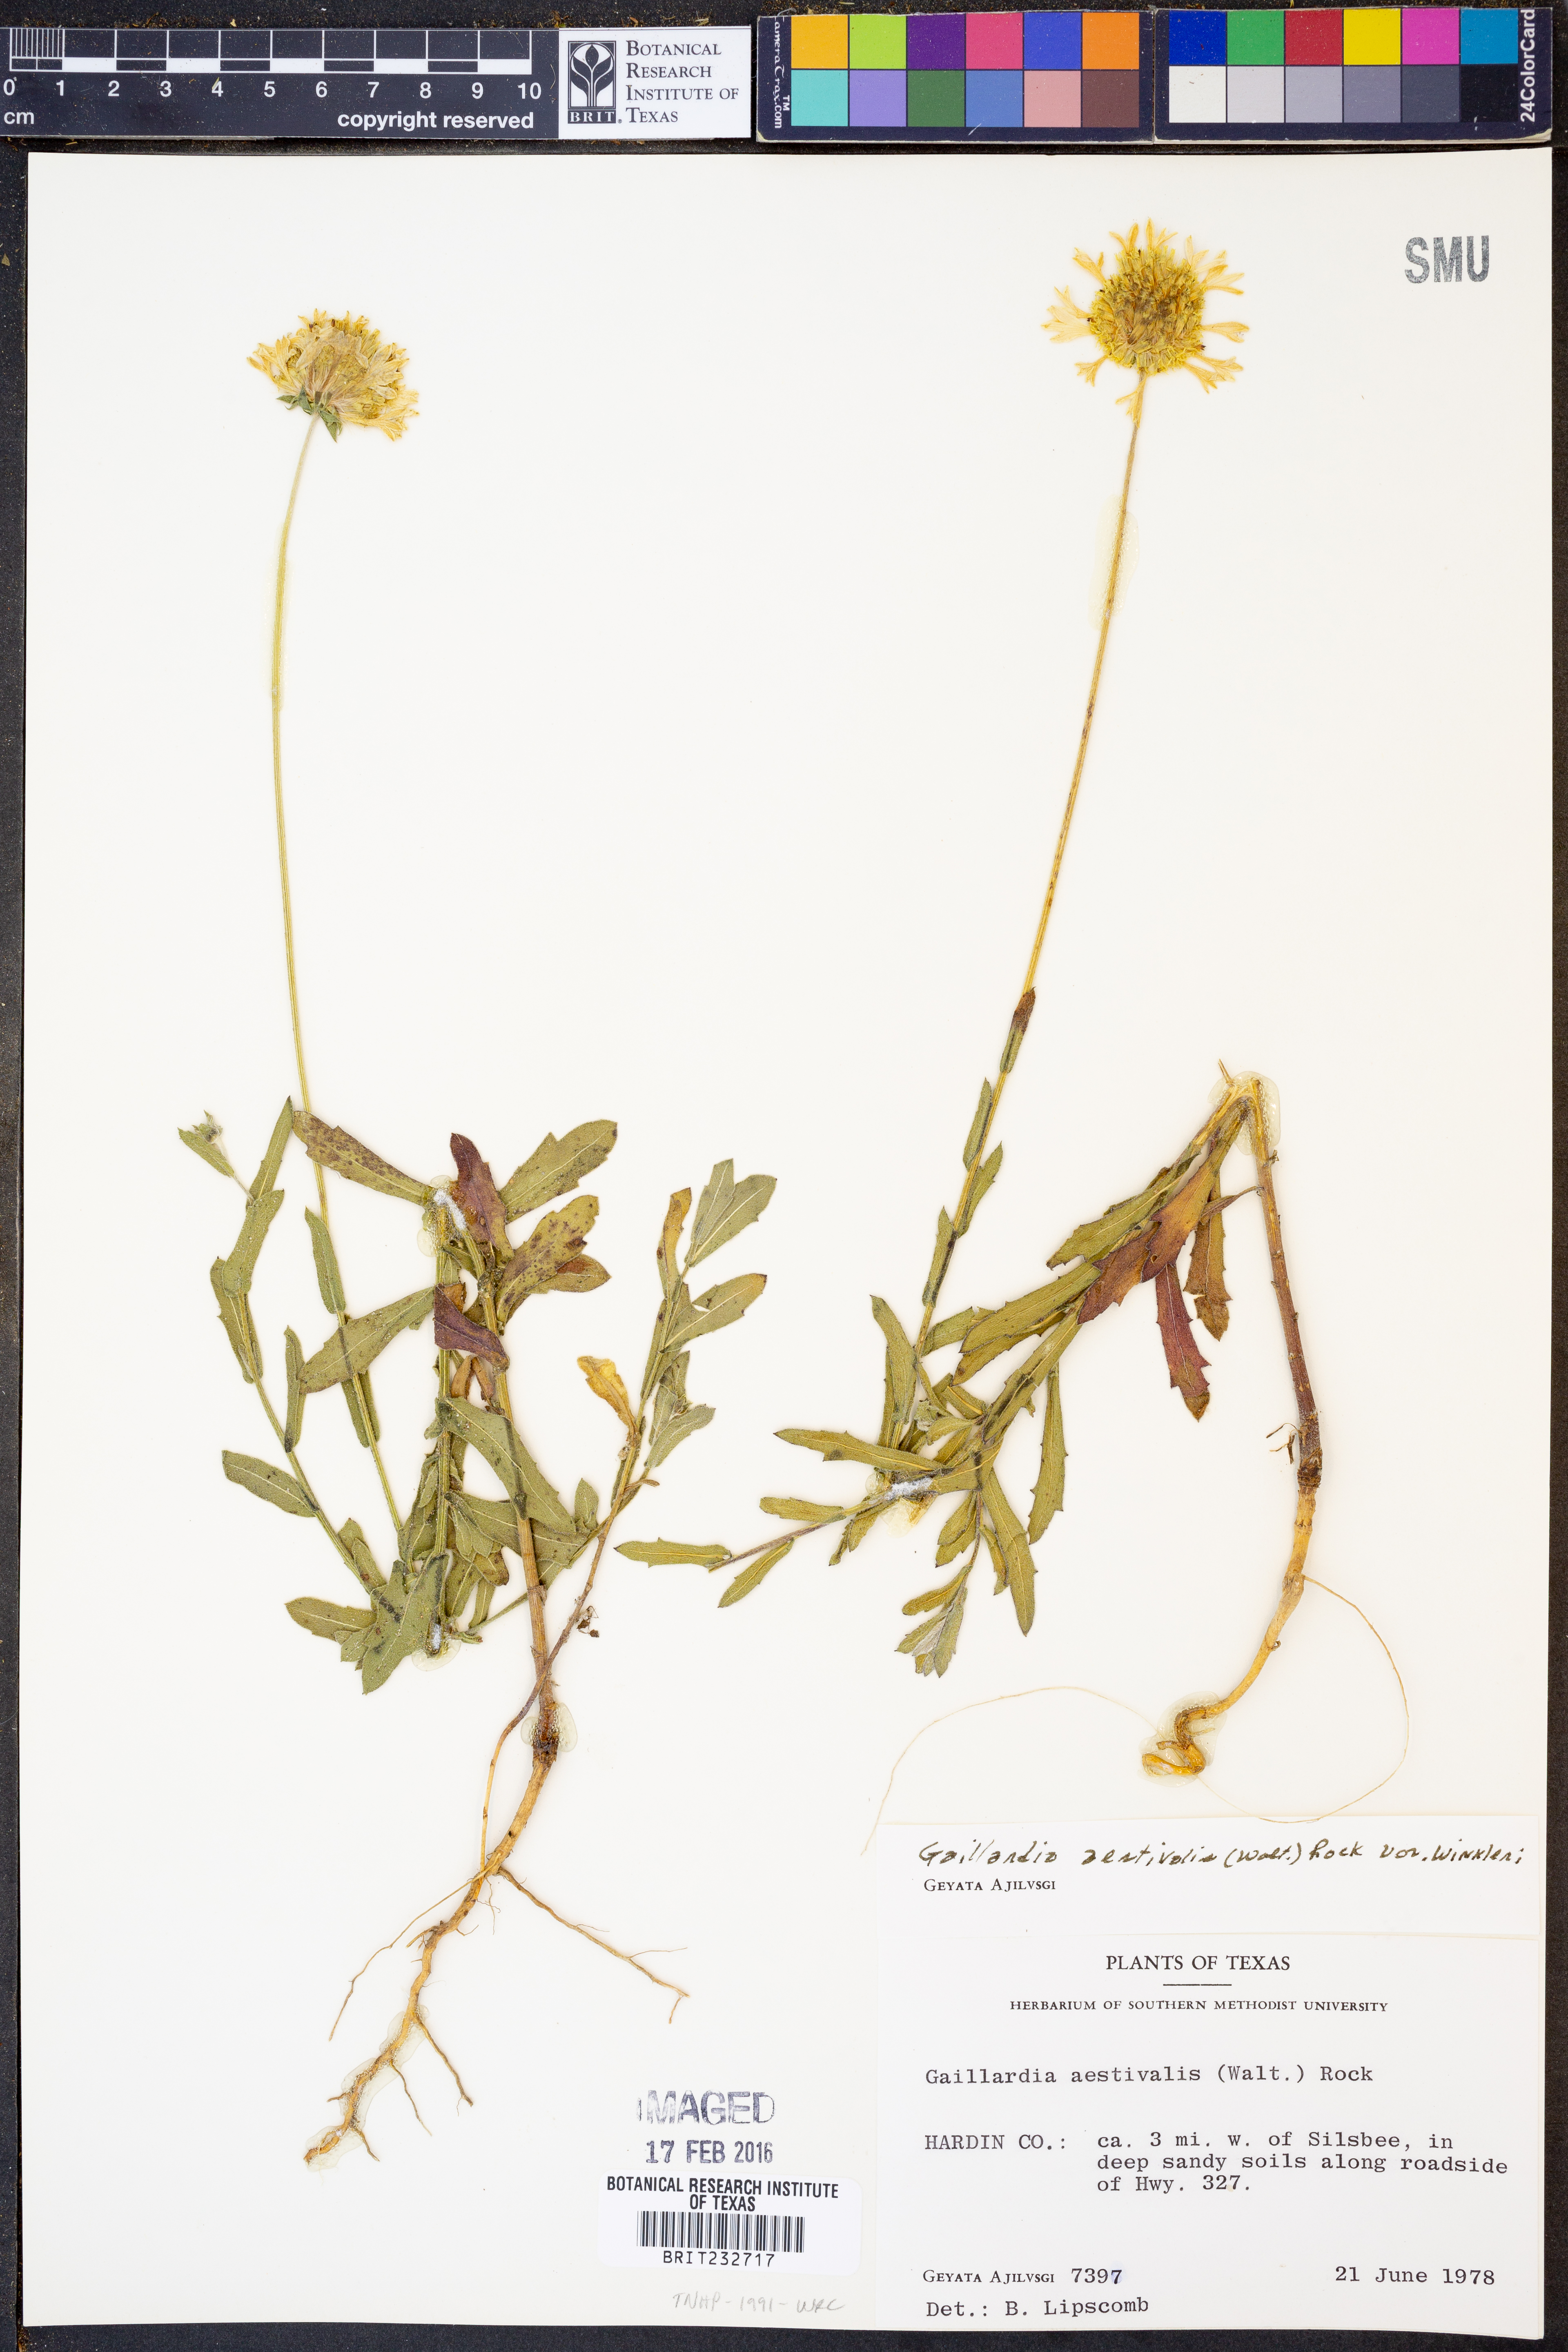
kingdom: Plantae
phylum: Tracheophyta
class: Magnoliopsida
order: Asterales
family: Asteraceae
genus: Gaillardia
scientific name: Gaillardia aestivalis
